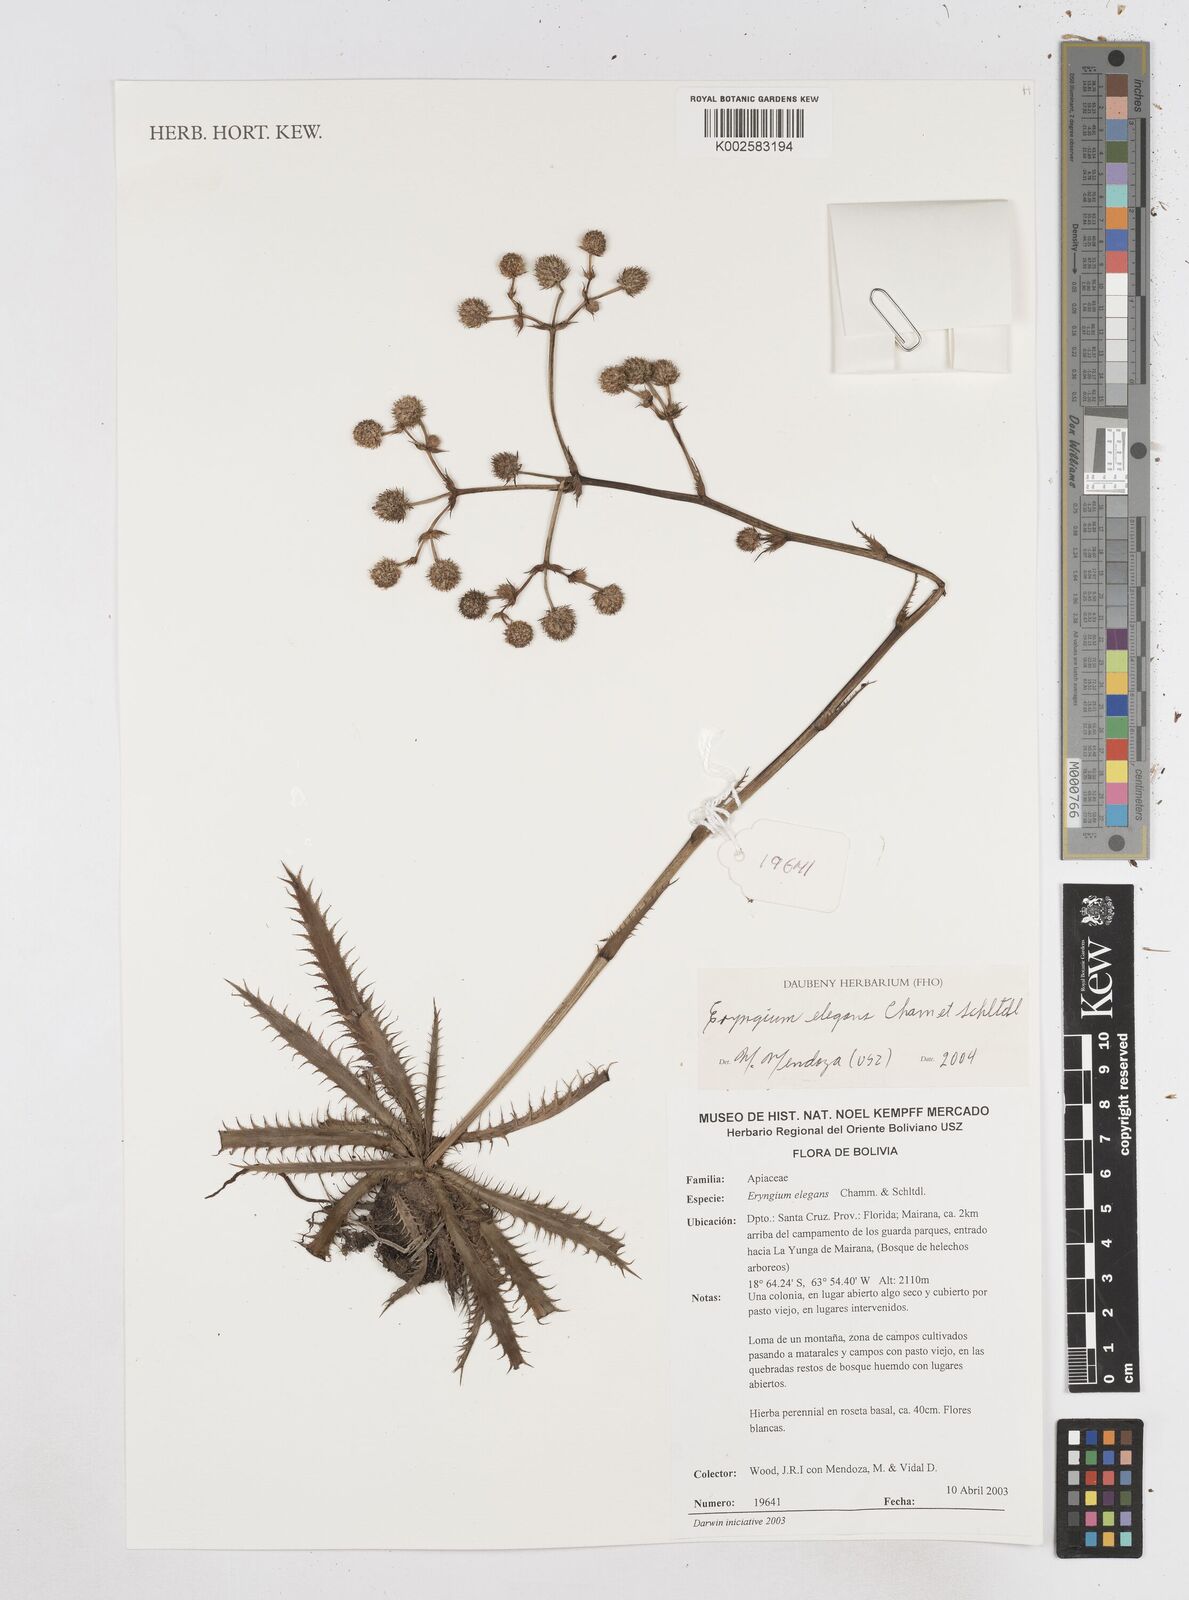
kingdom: Plantae
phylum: Tracheophyta
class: Magnoliopsida
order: Apiales
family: Apiaceae
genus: Eryngium
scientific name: Eryngium elegans
